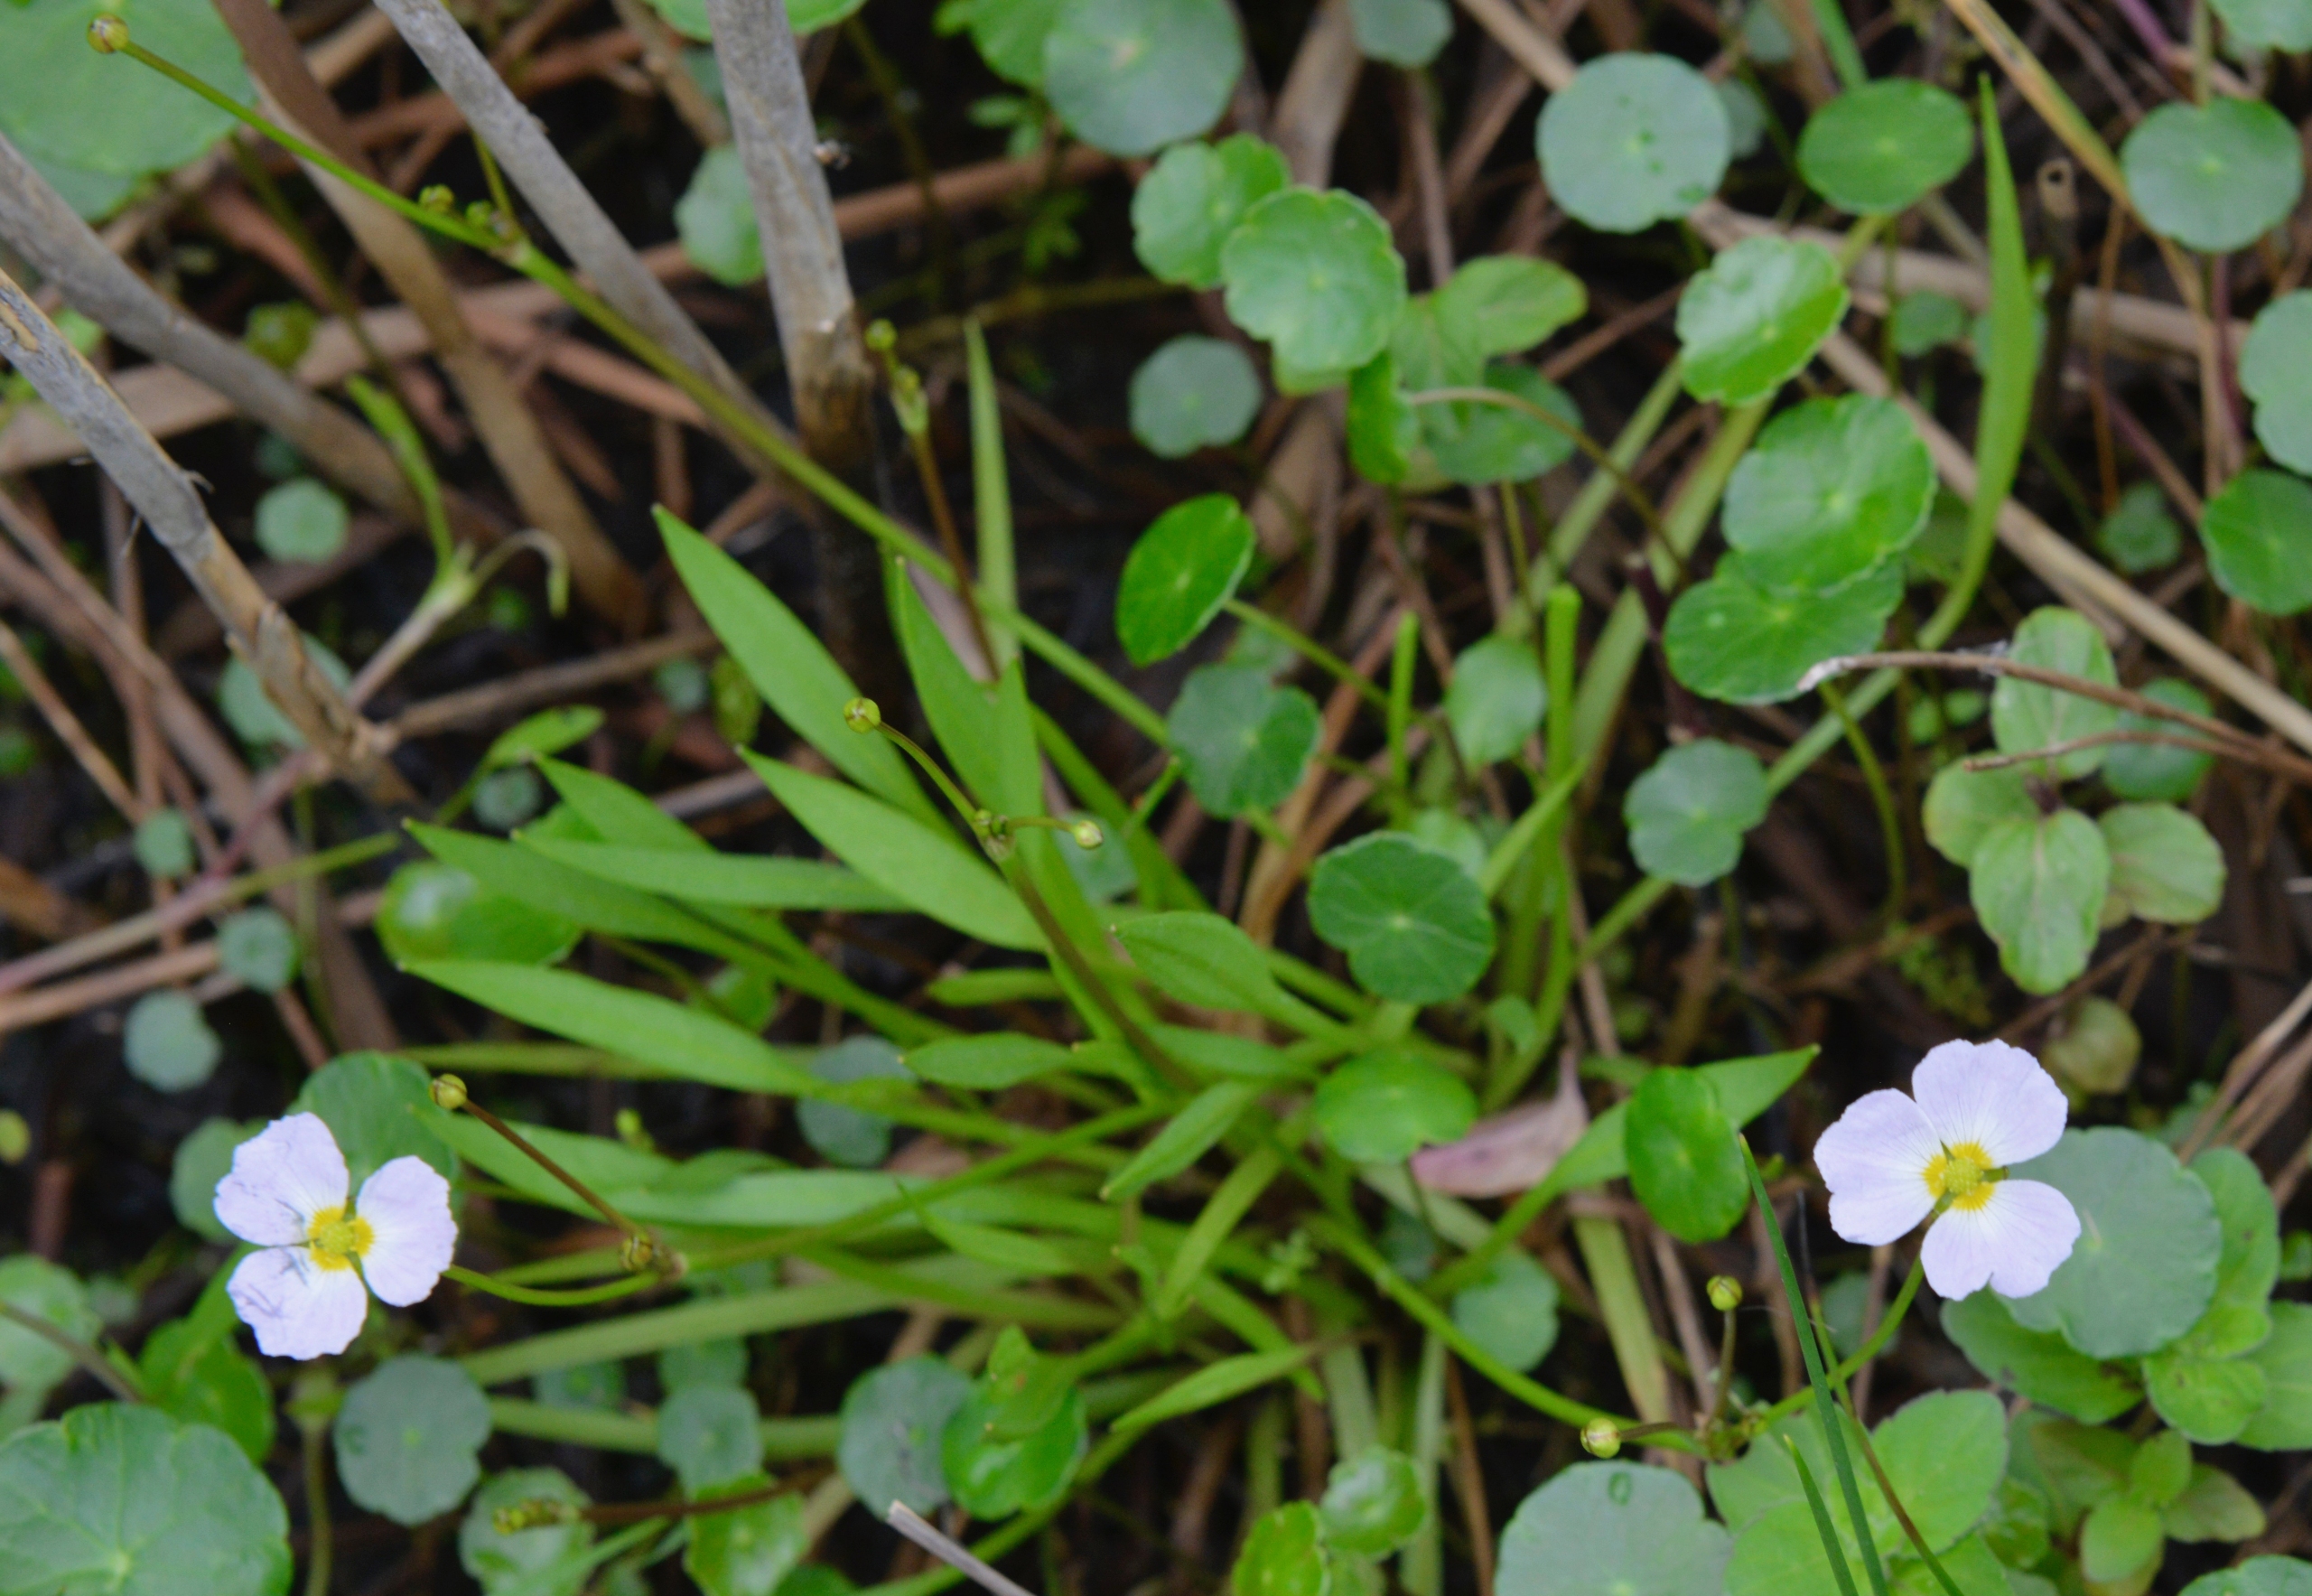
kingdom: Plantae
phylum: Tracheophyta
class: Liliopsida
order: Alismatales
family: Alismataceae
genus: Baldellia
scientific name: Baldellia ranunculoides
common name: Søpryd
